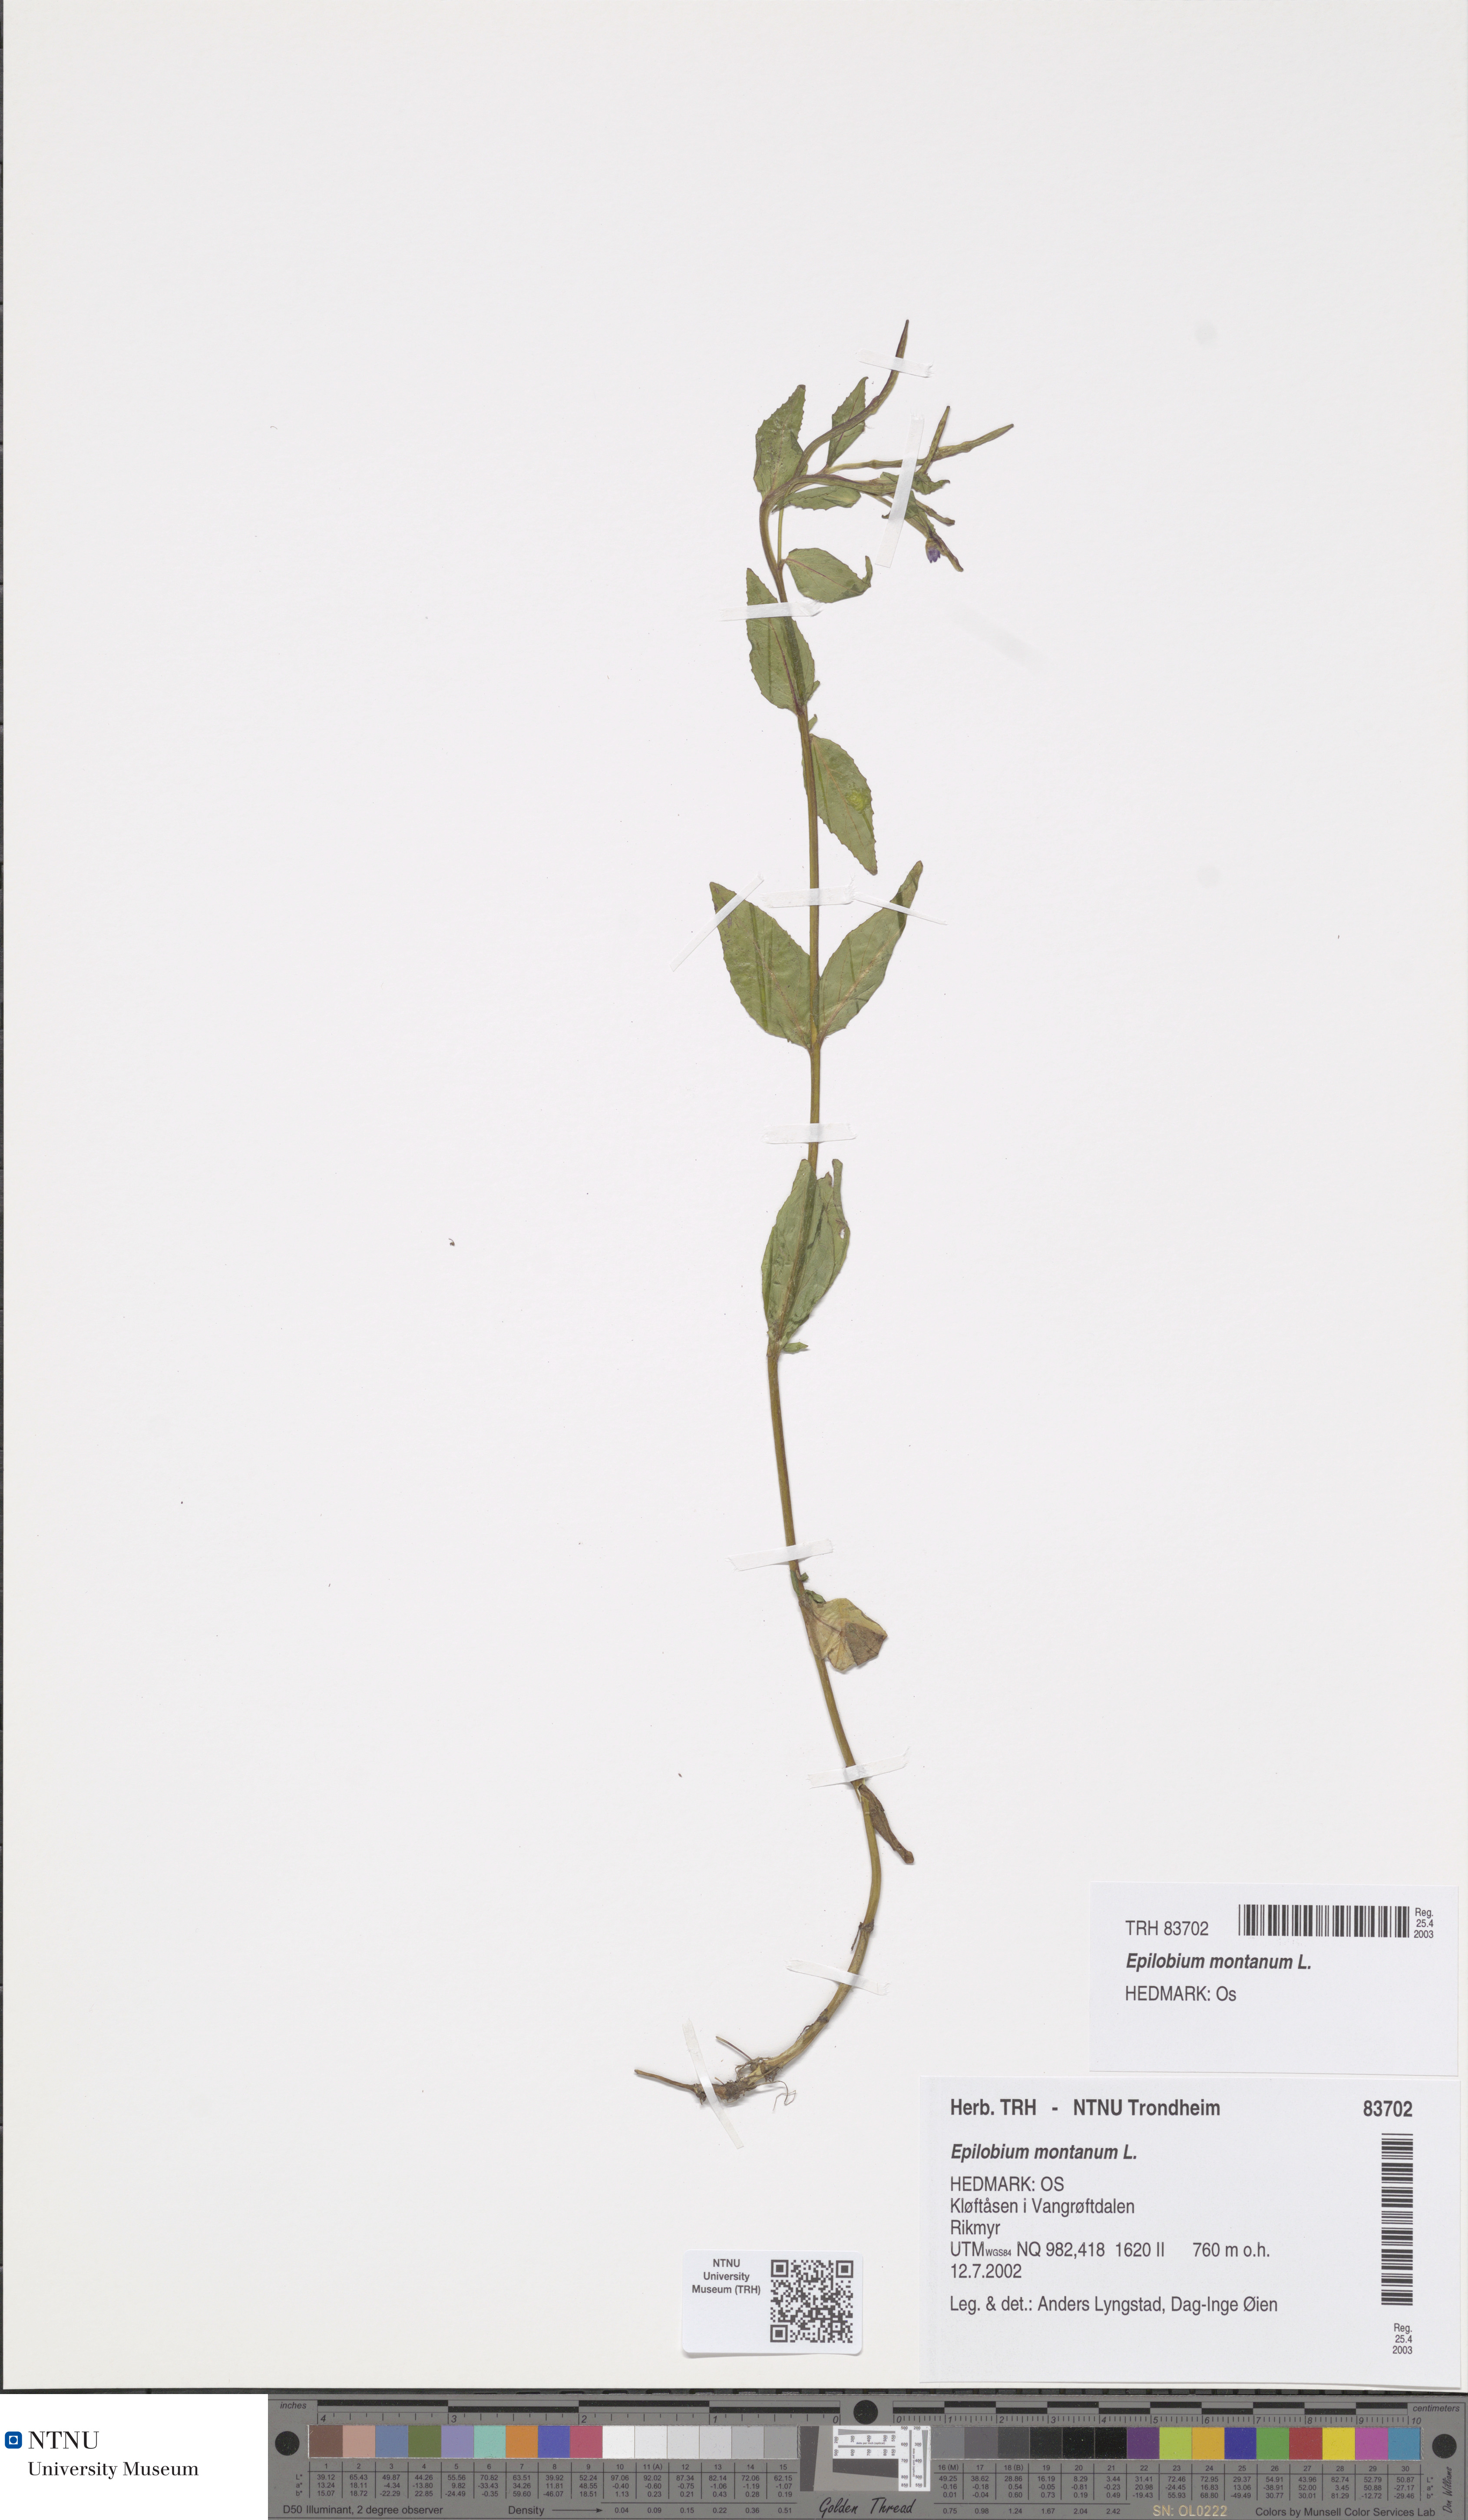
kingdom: Plantae
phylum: Tracheophyta
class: Magnoliopsida
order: Myrtales
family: Onagraceae
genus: Epilobium
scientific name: Epilobium montanum
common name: Broad-leaved willowherb
